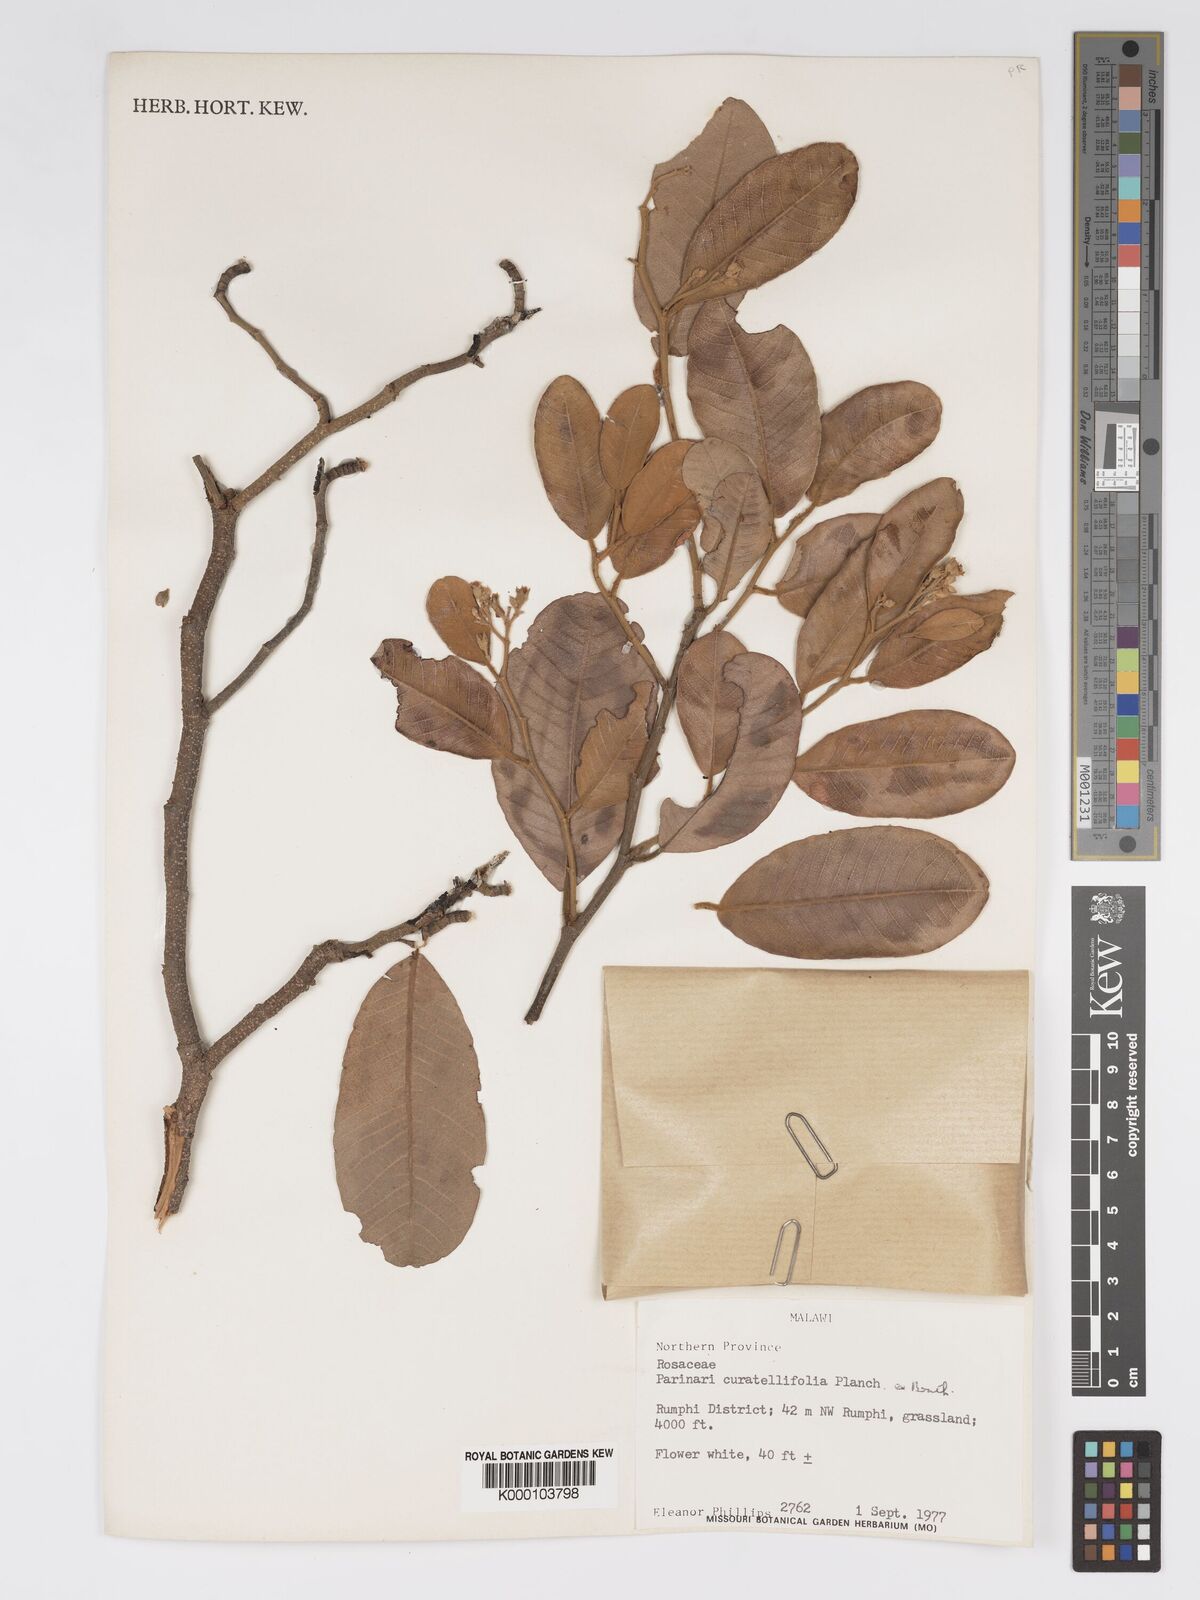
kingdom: Plantae
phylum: Tracheophyta
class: Magnoliopsida
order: Malpighiales
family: Chrysobalanaceae
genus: Parinari
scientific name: Parinari curatellifolia
